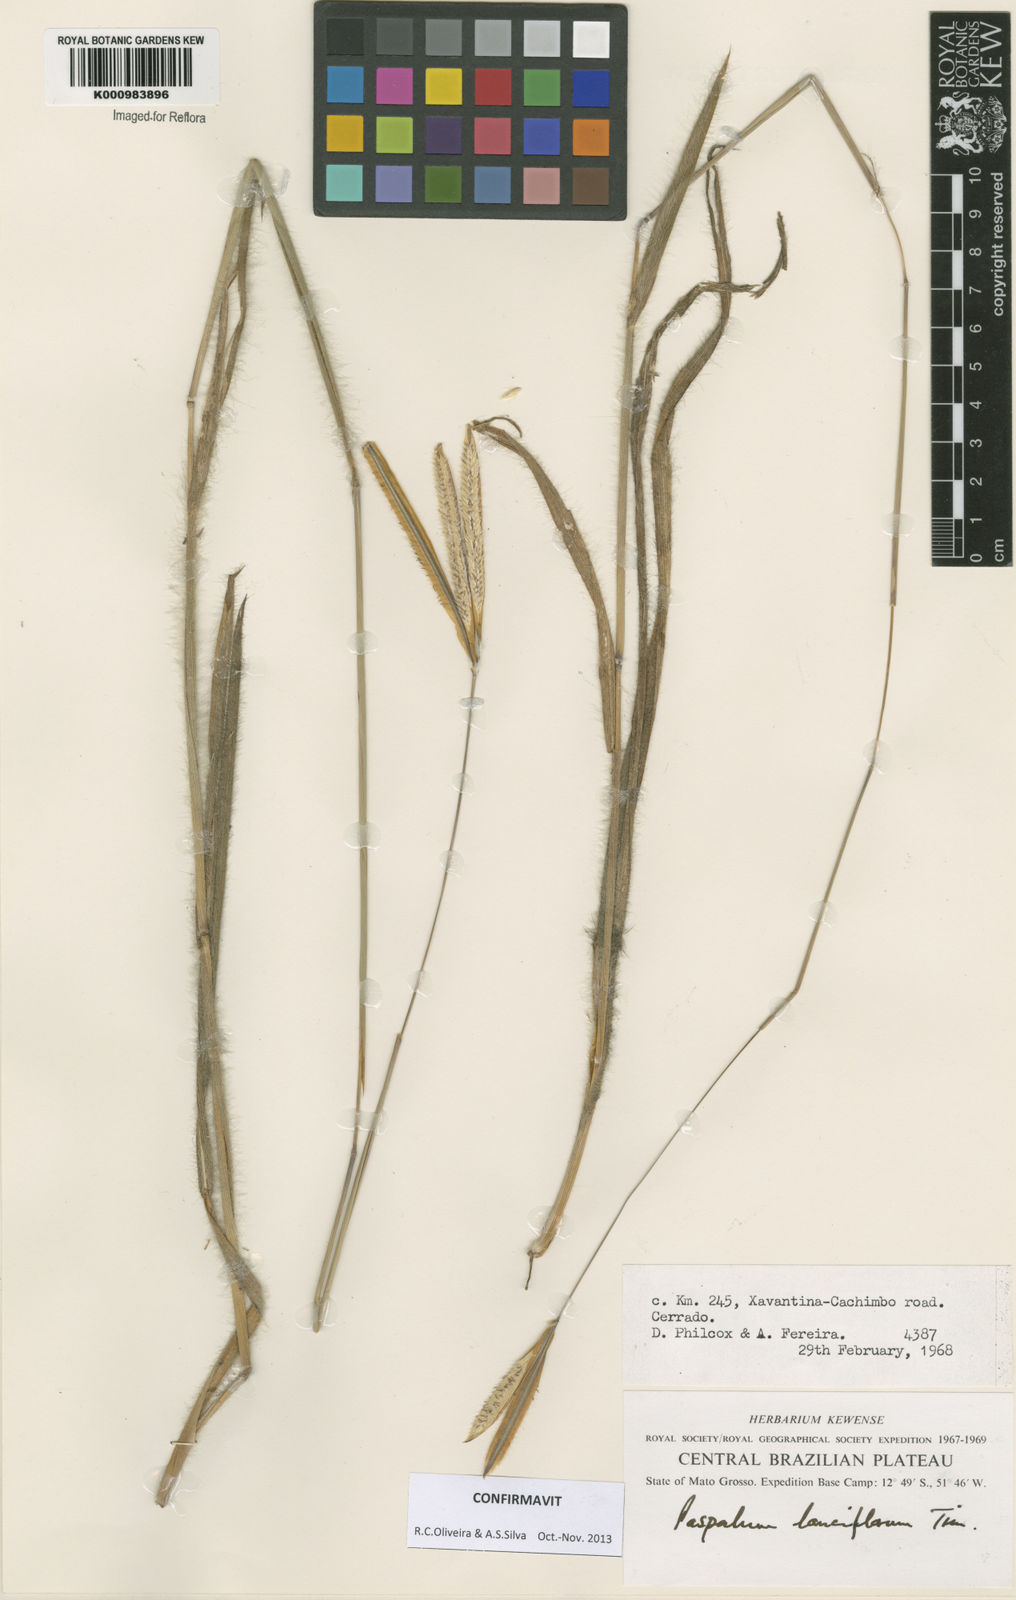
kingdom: Plantae
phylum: Tracheophyta
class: Liliopsida
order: Poales
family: Poaceae
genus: Paspalum
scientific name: Paspalum
